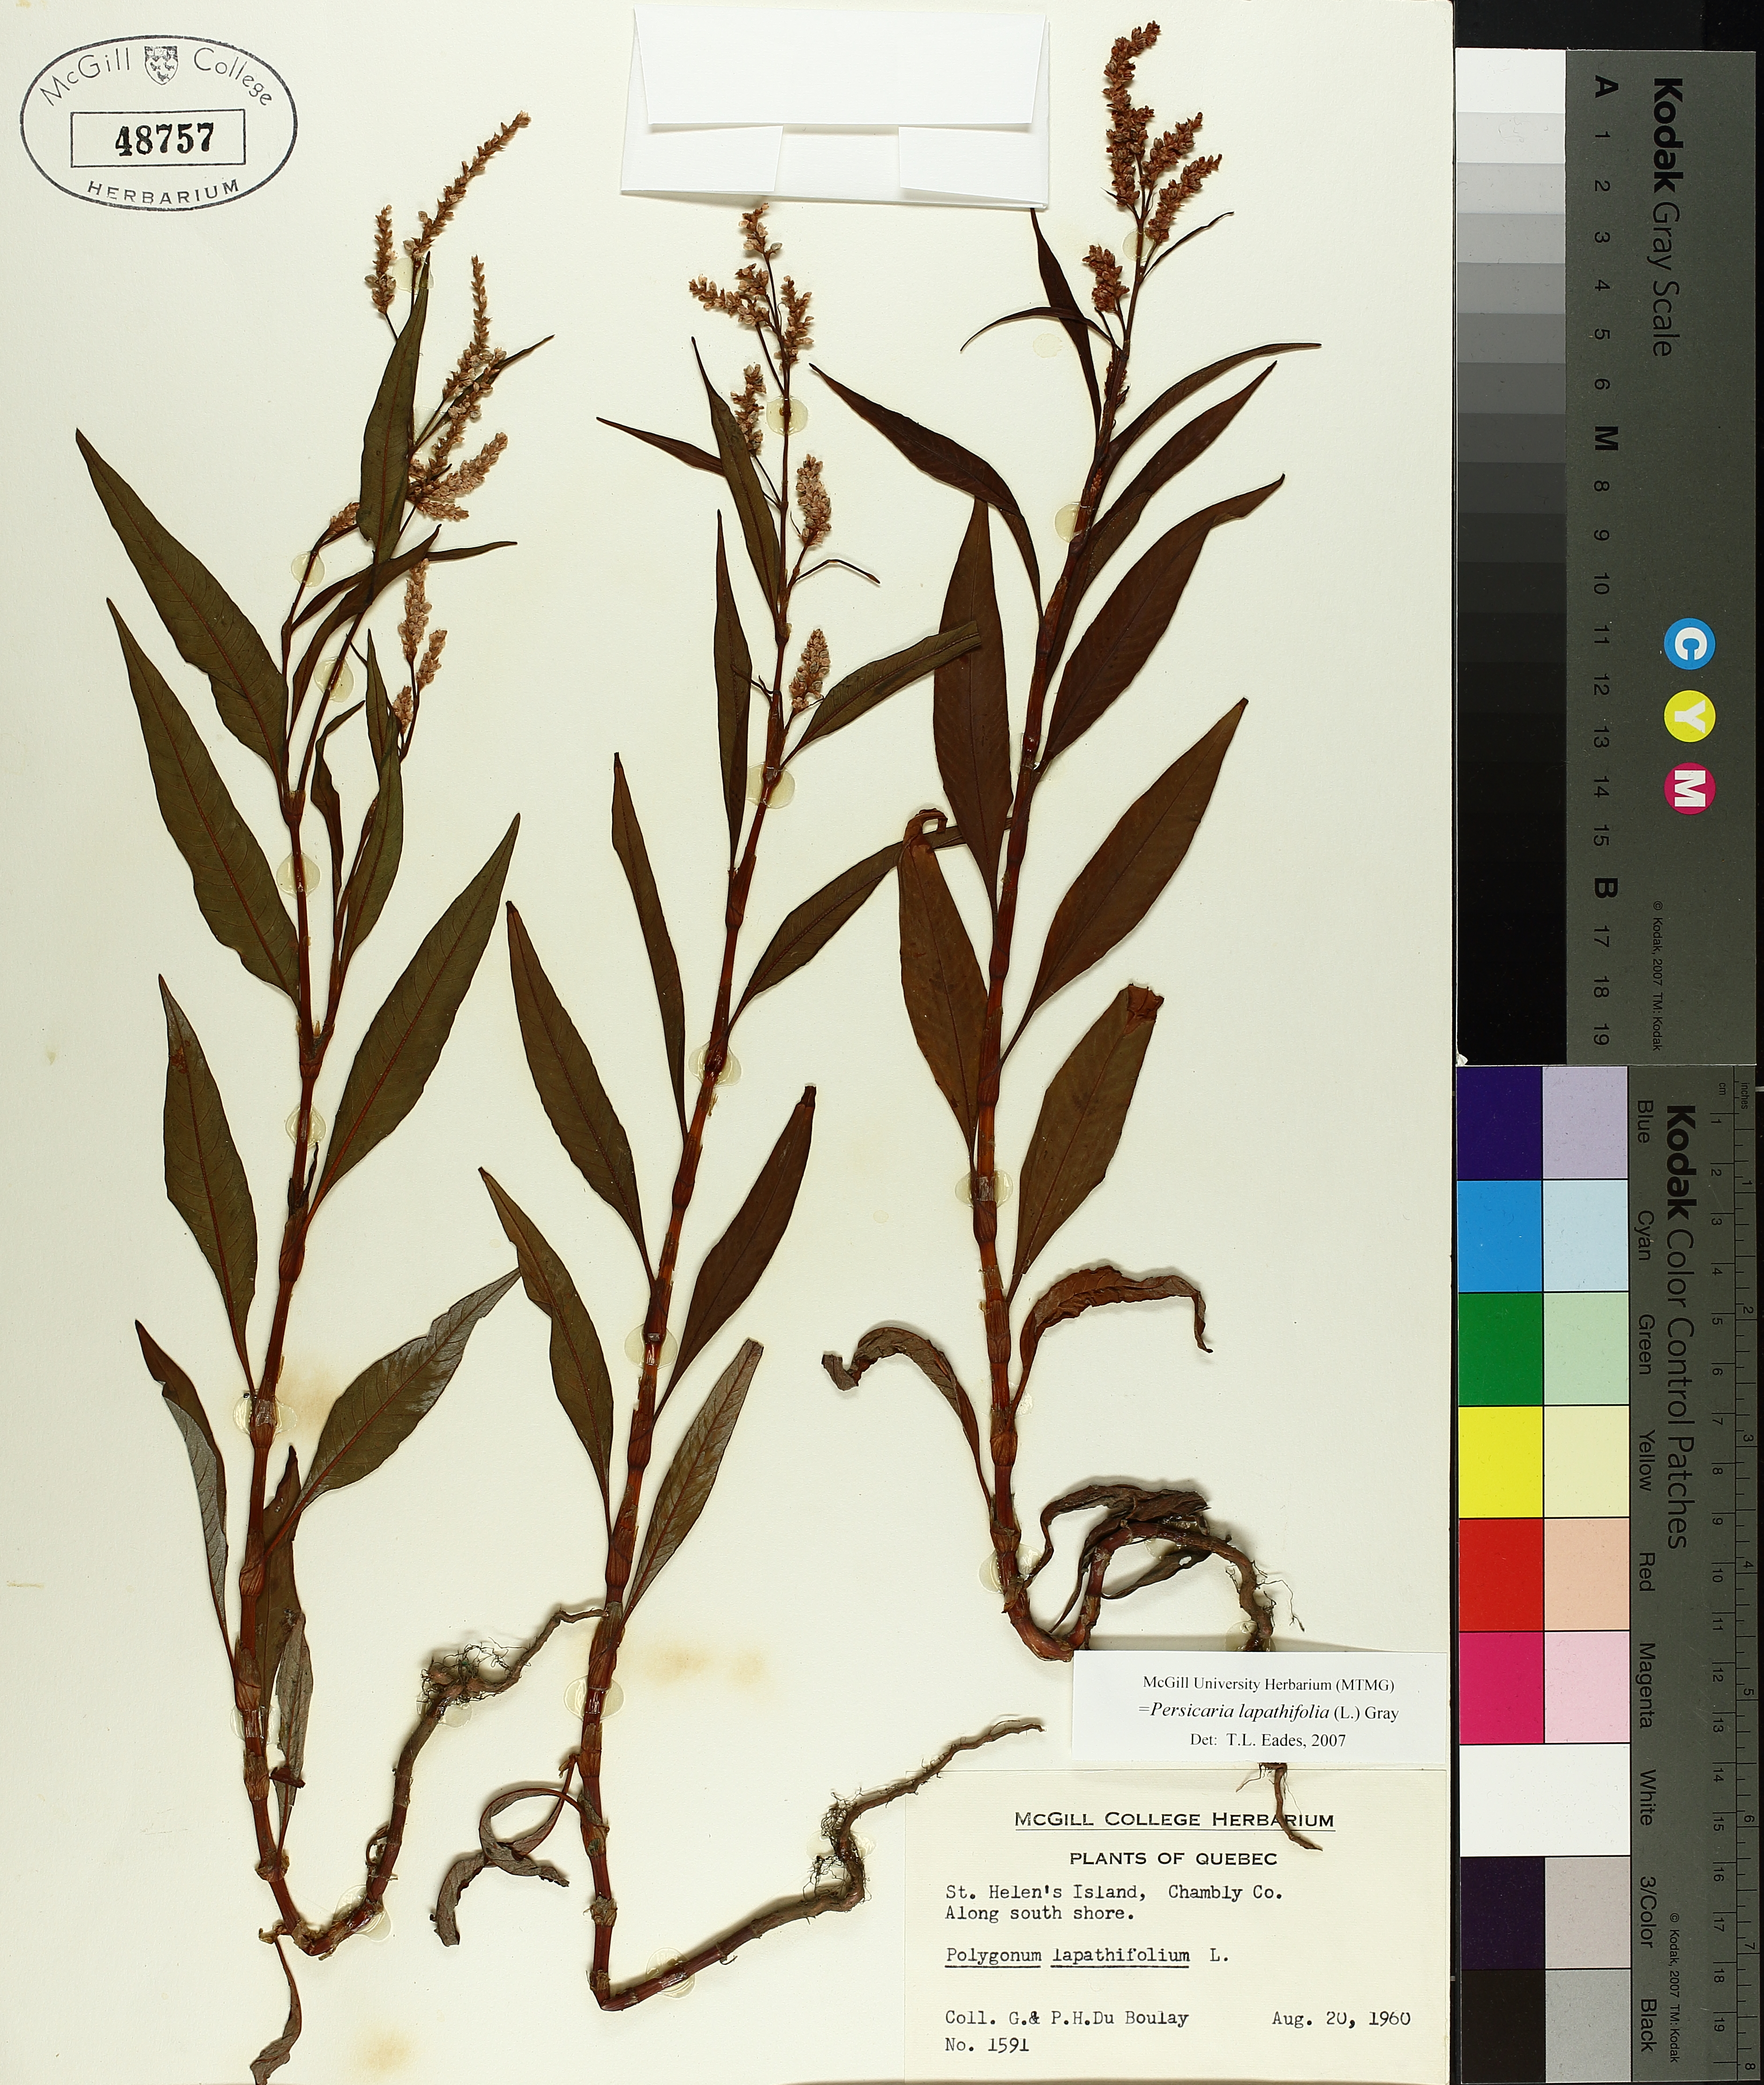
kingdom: Plantae
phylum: Tracheophyta
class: Magnoliopsida
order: Caryophyllales
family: Polygonaceae
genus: Persicaria
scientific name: Persicaria lapathifolia
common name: Curlytop knotweed
